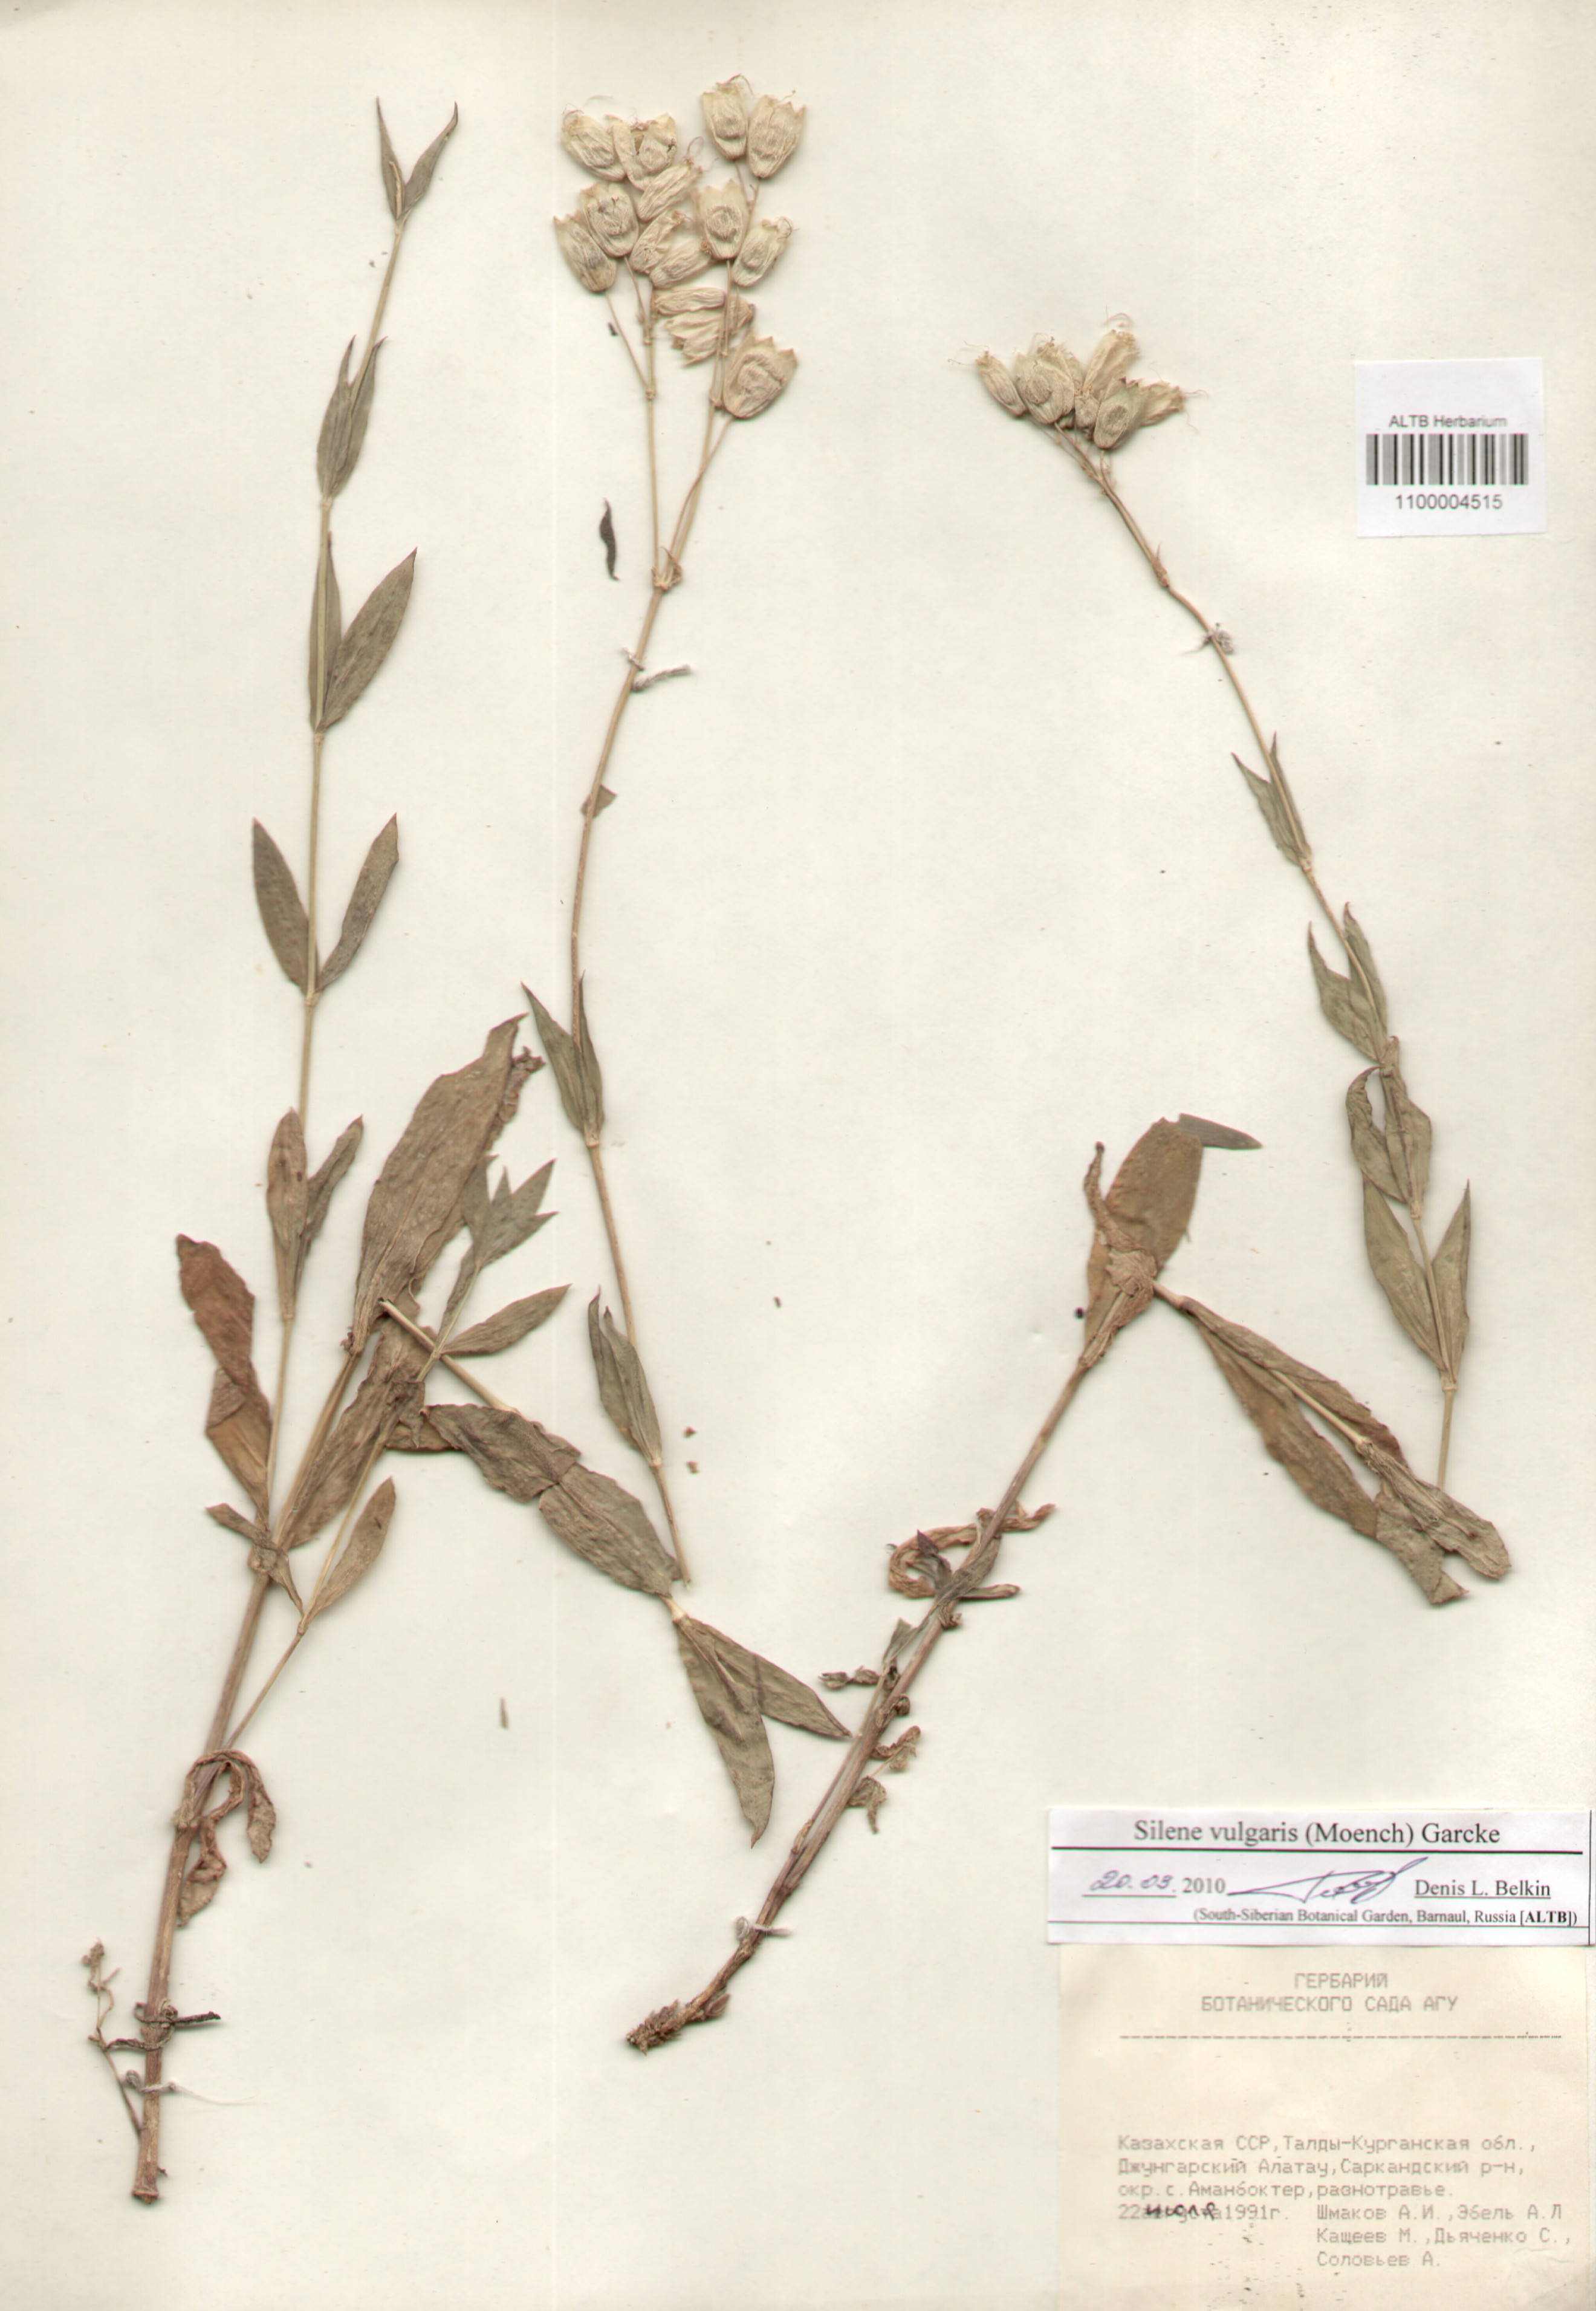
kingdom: Plantae
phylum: Tracheophyta
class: Magnoliopsida
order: Caryophyllales
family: Caryophyllaceae
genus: Silene
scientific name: Silene vulgaris
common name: Bladder campion
